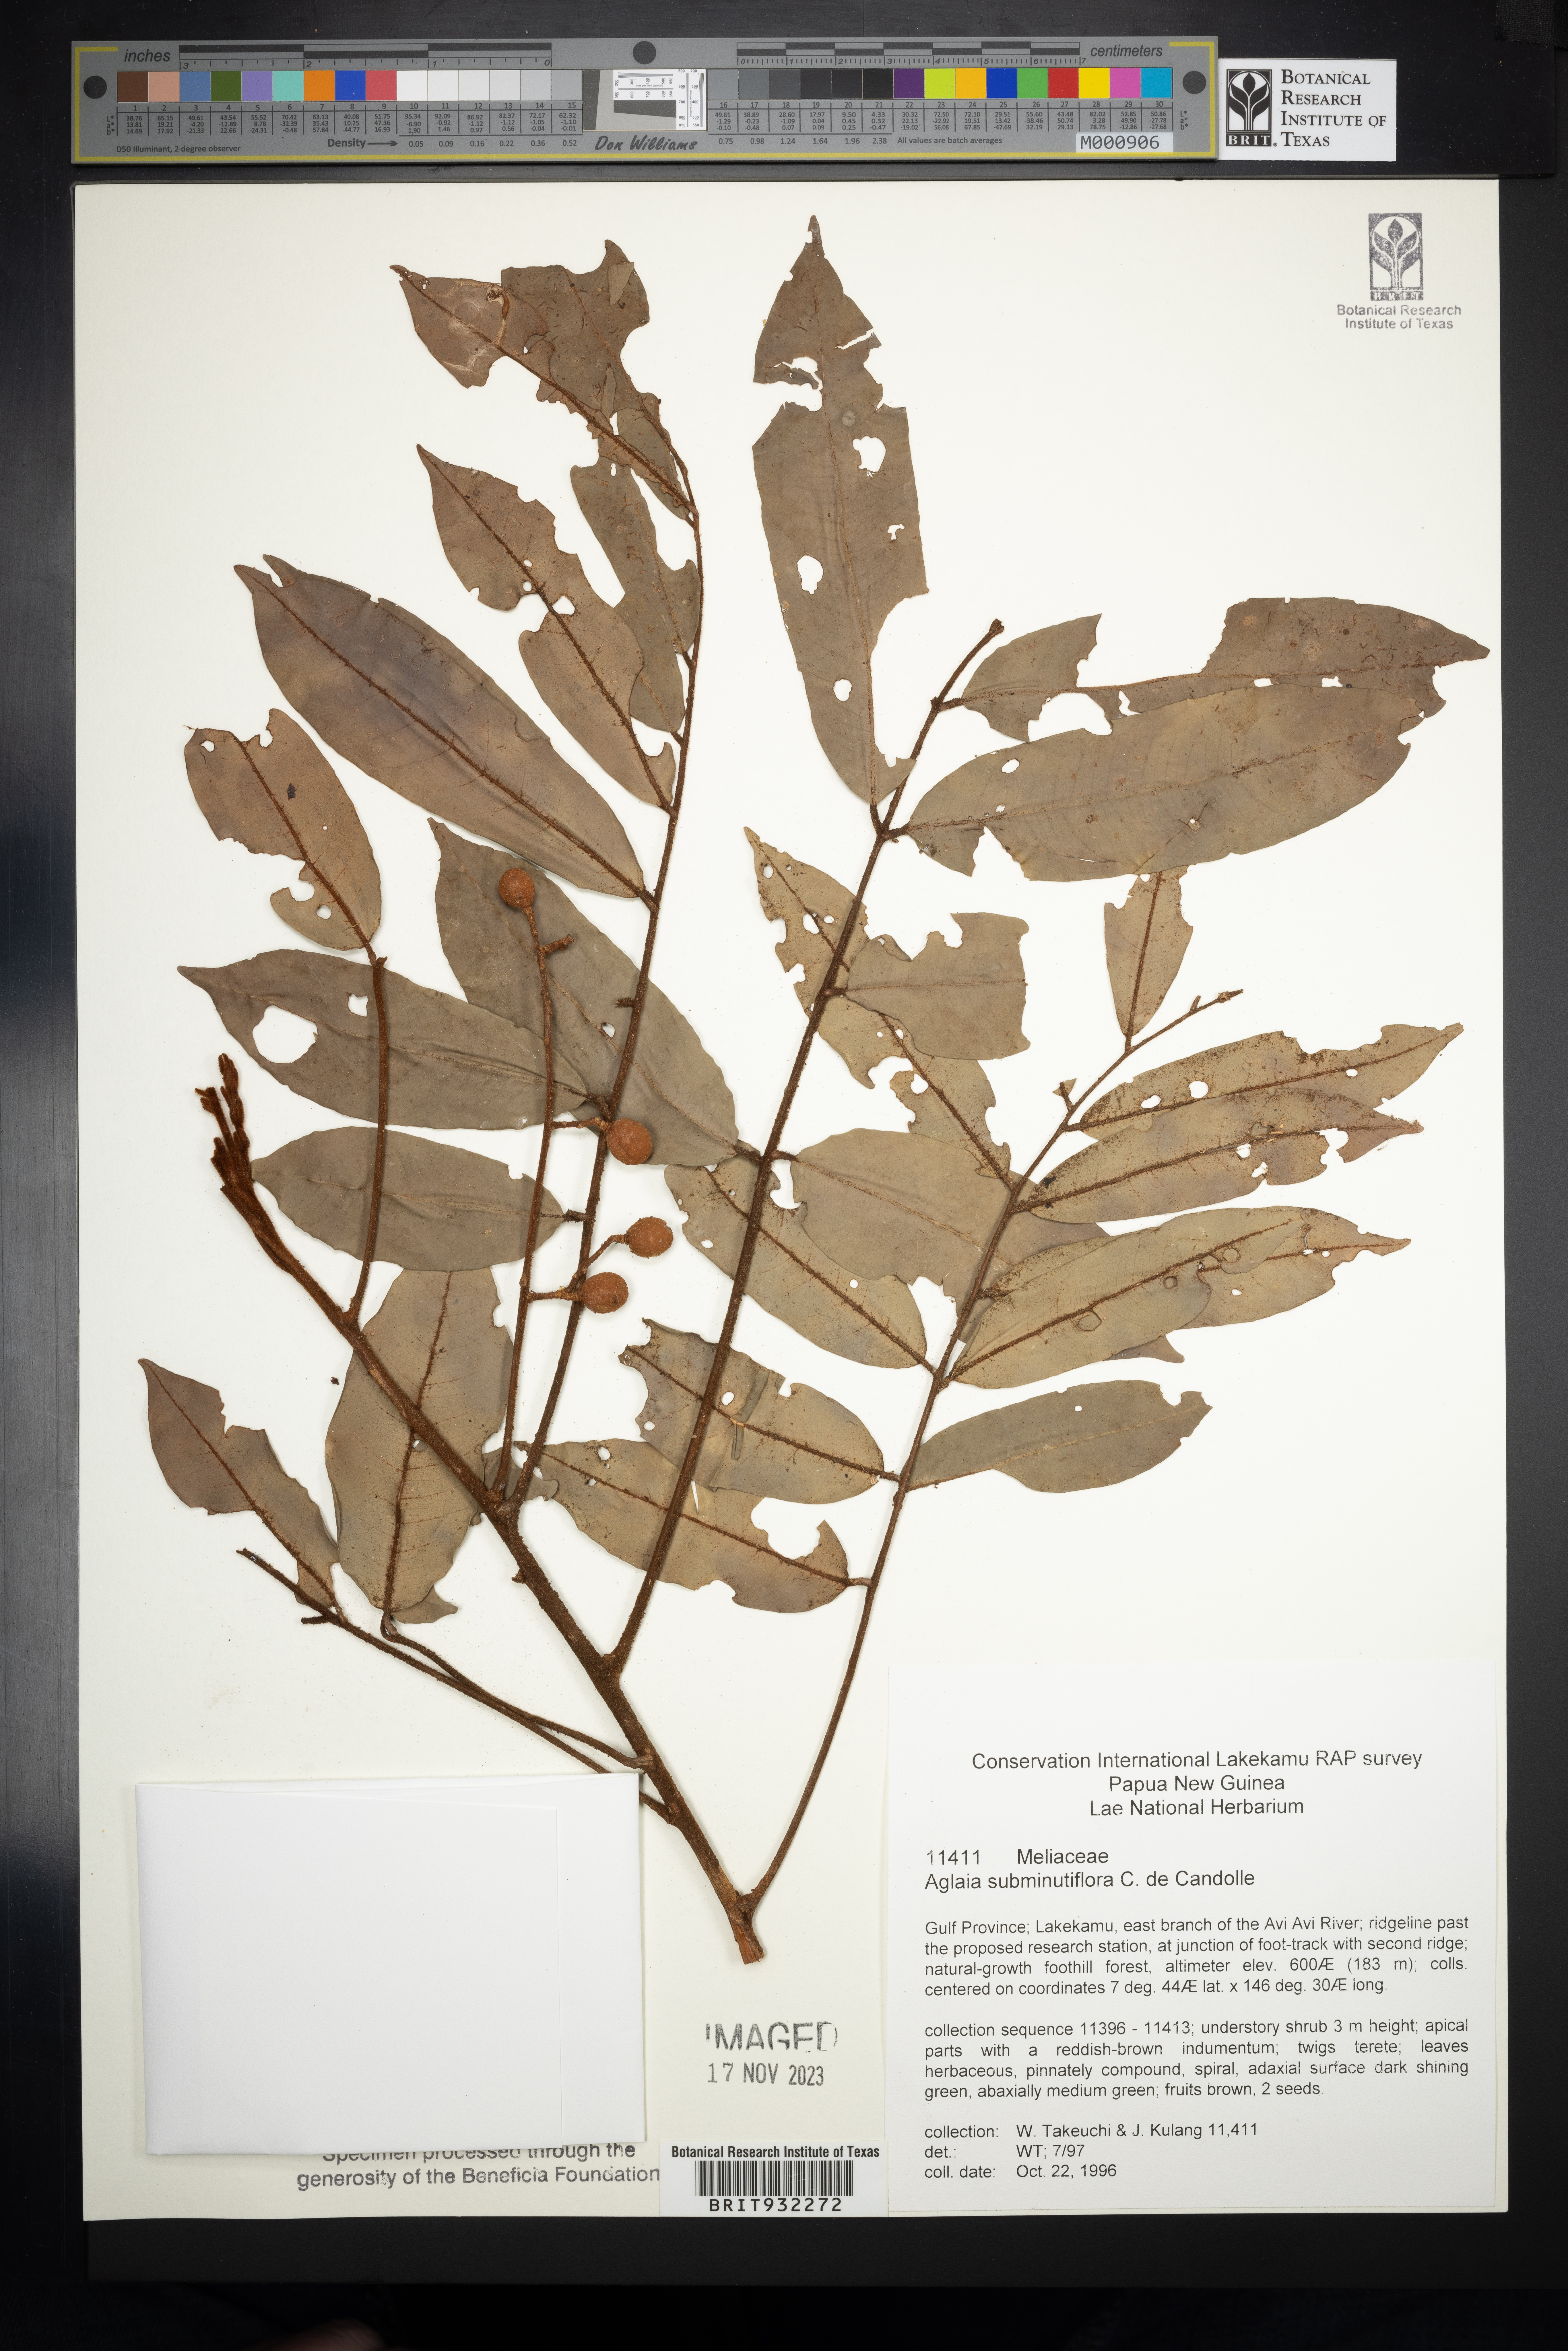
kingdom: Plantae
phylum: Tracheophyta
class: Magnoliopsida
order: Sapindales
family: Meliaceae
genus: Aglaia
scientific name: Aglaia
